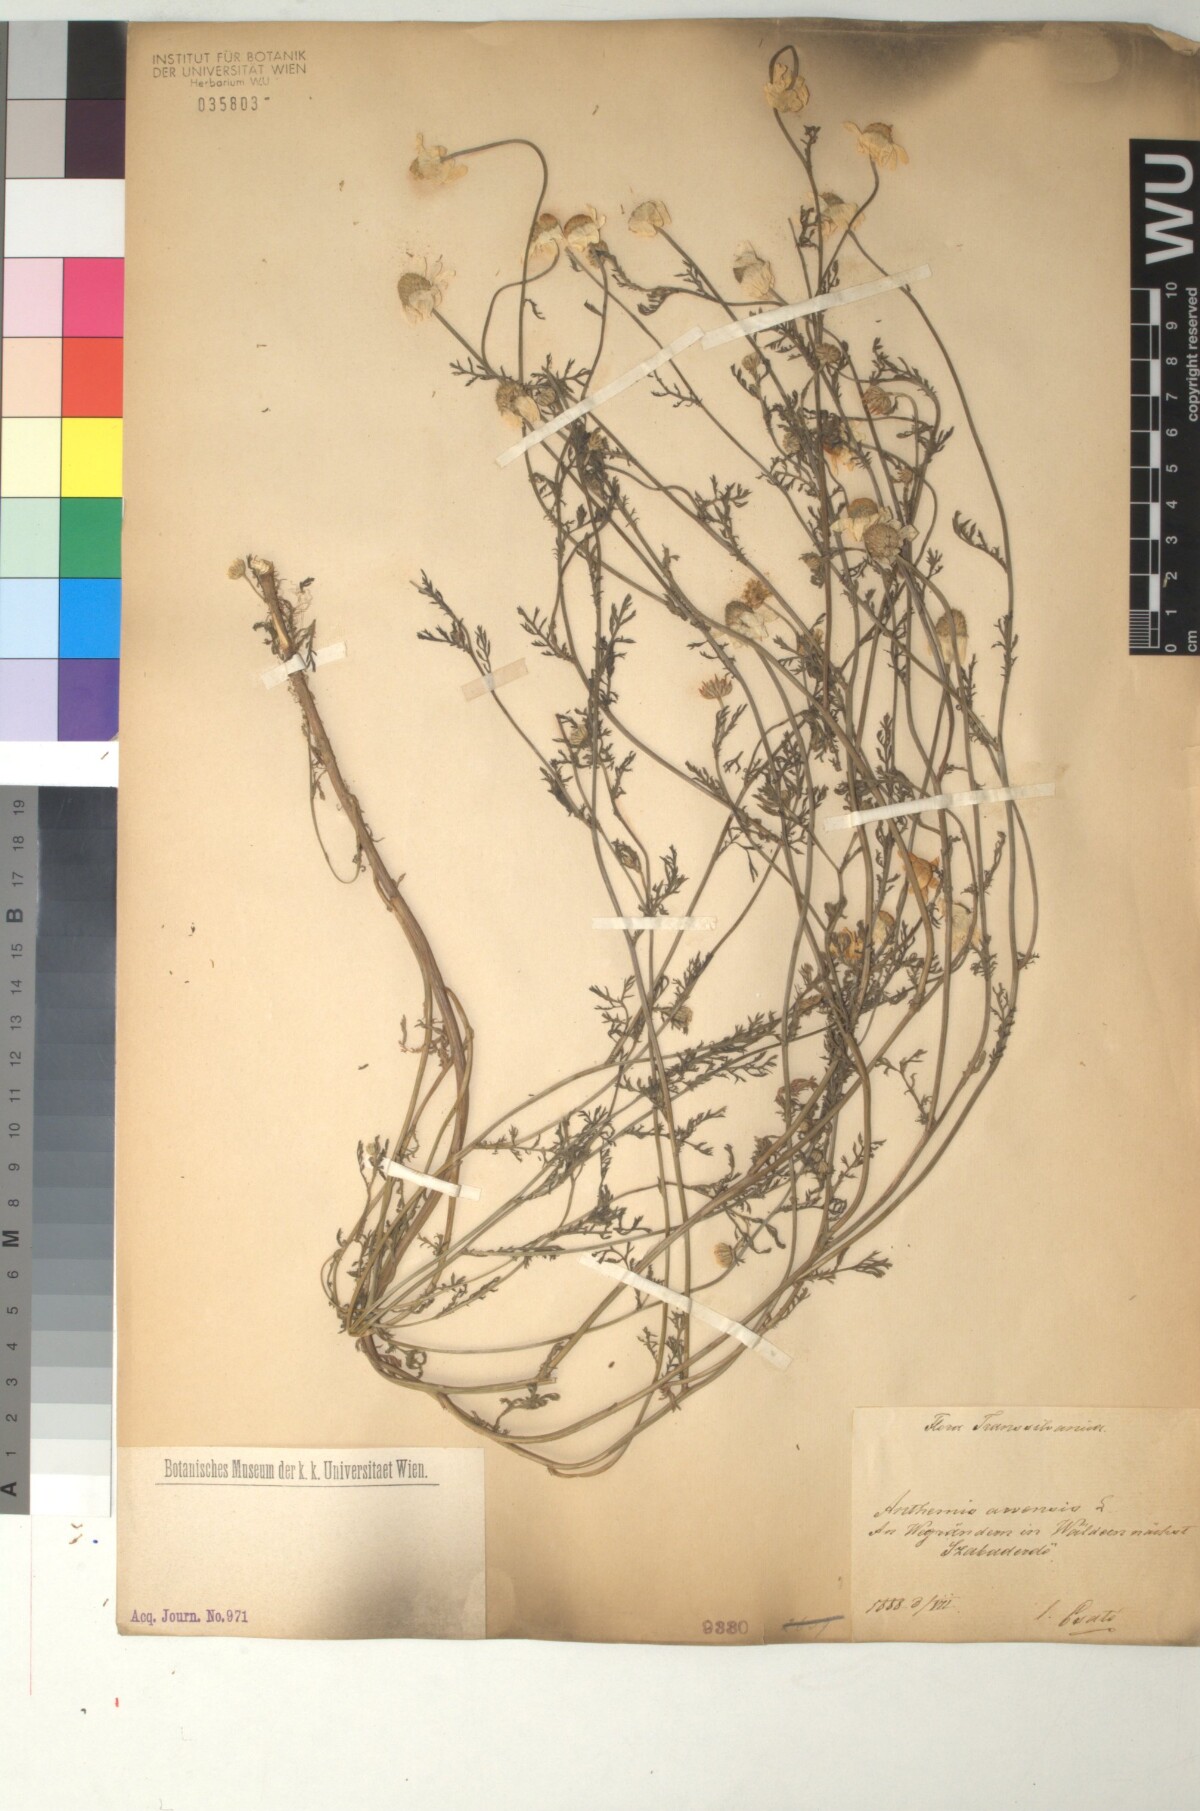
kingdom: Plantae
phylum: Tracheophyta
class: Magnoliopsida
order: Asterales
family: Asteraceae
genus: Anthemis
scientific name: Anthemis arvensis
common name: Corn chamomile
